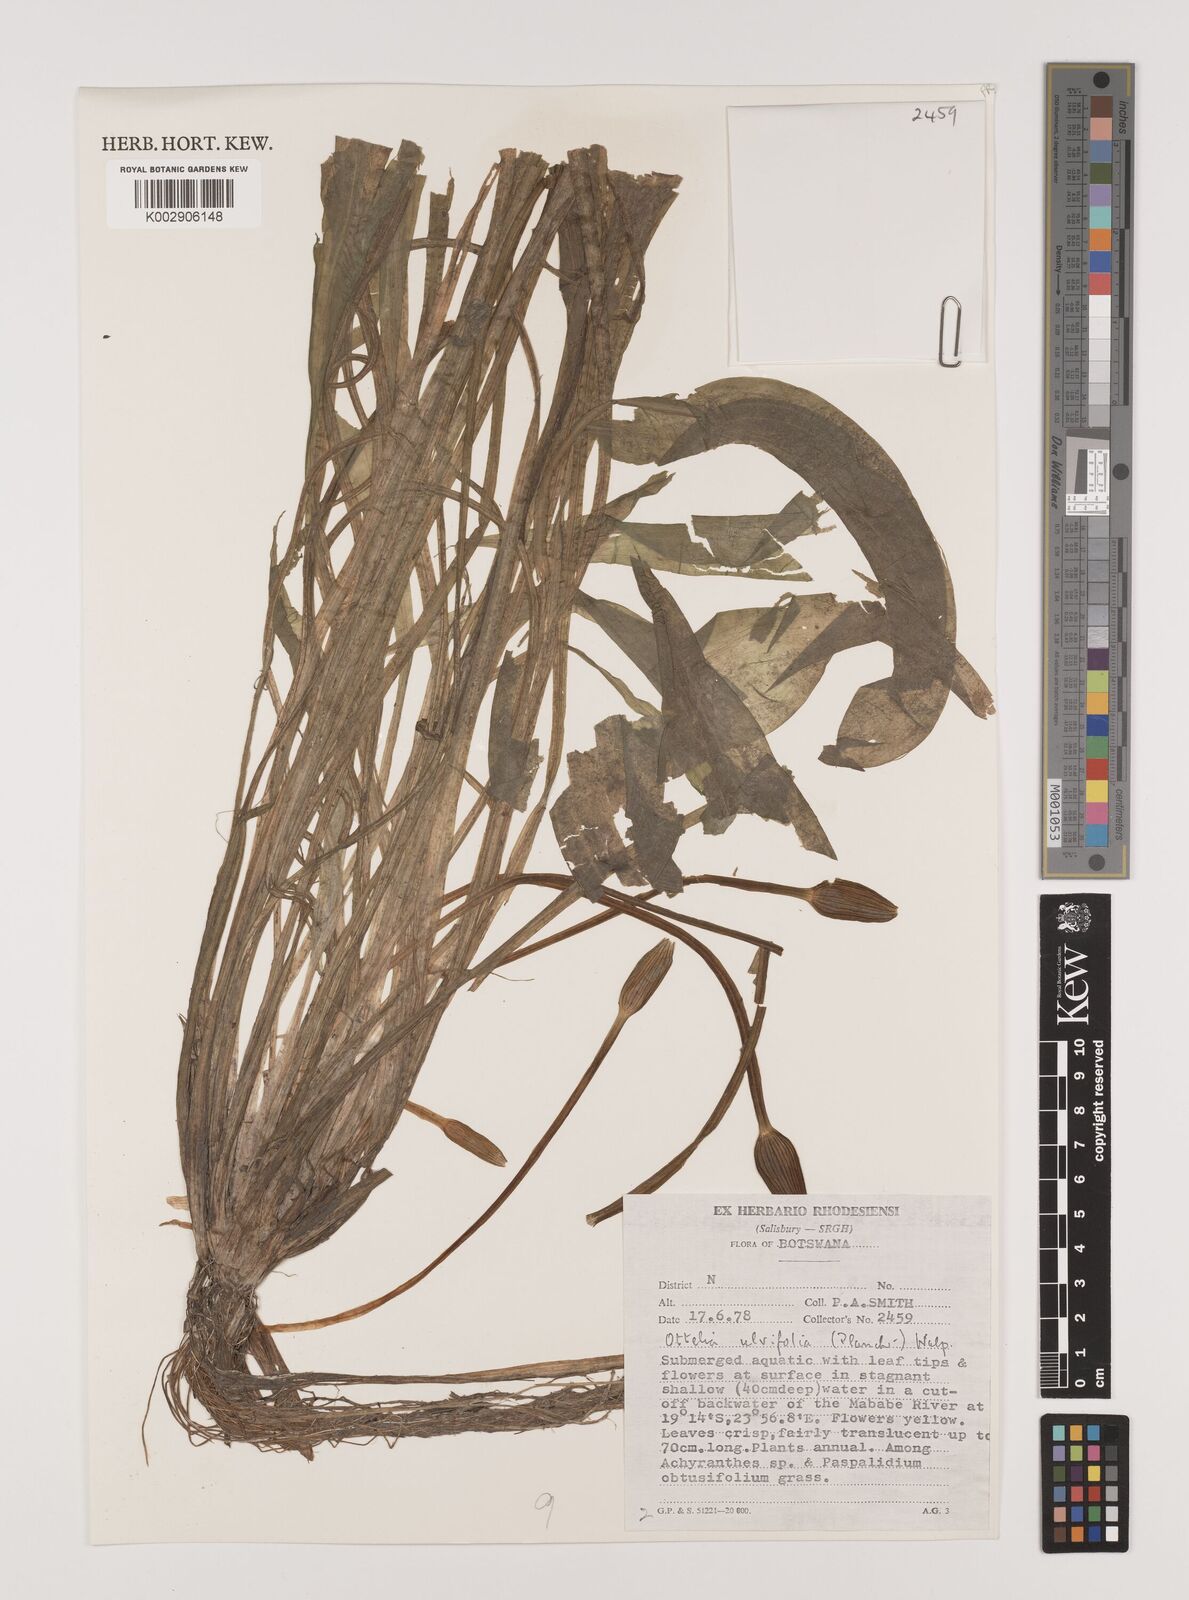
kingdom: Plantae
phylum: Tracheophyta
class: Liliopsida
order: Alismatales
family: Hydrocharitaceae
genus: Ottelia
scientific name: Ottelia ulvifolia
